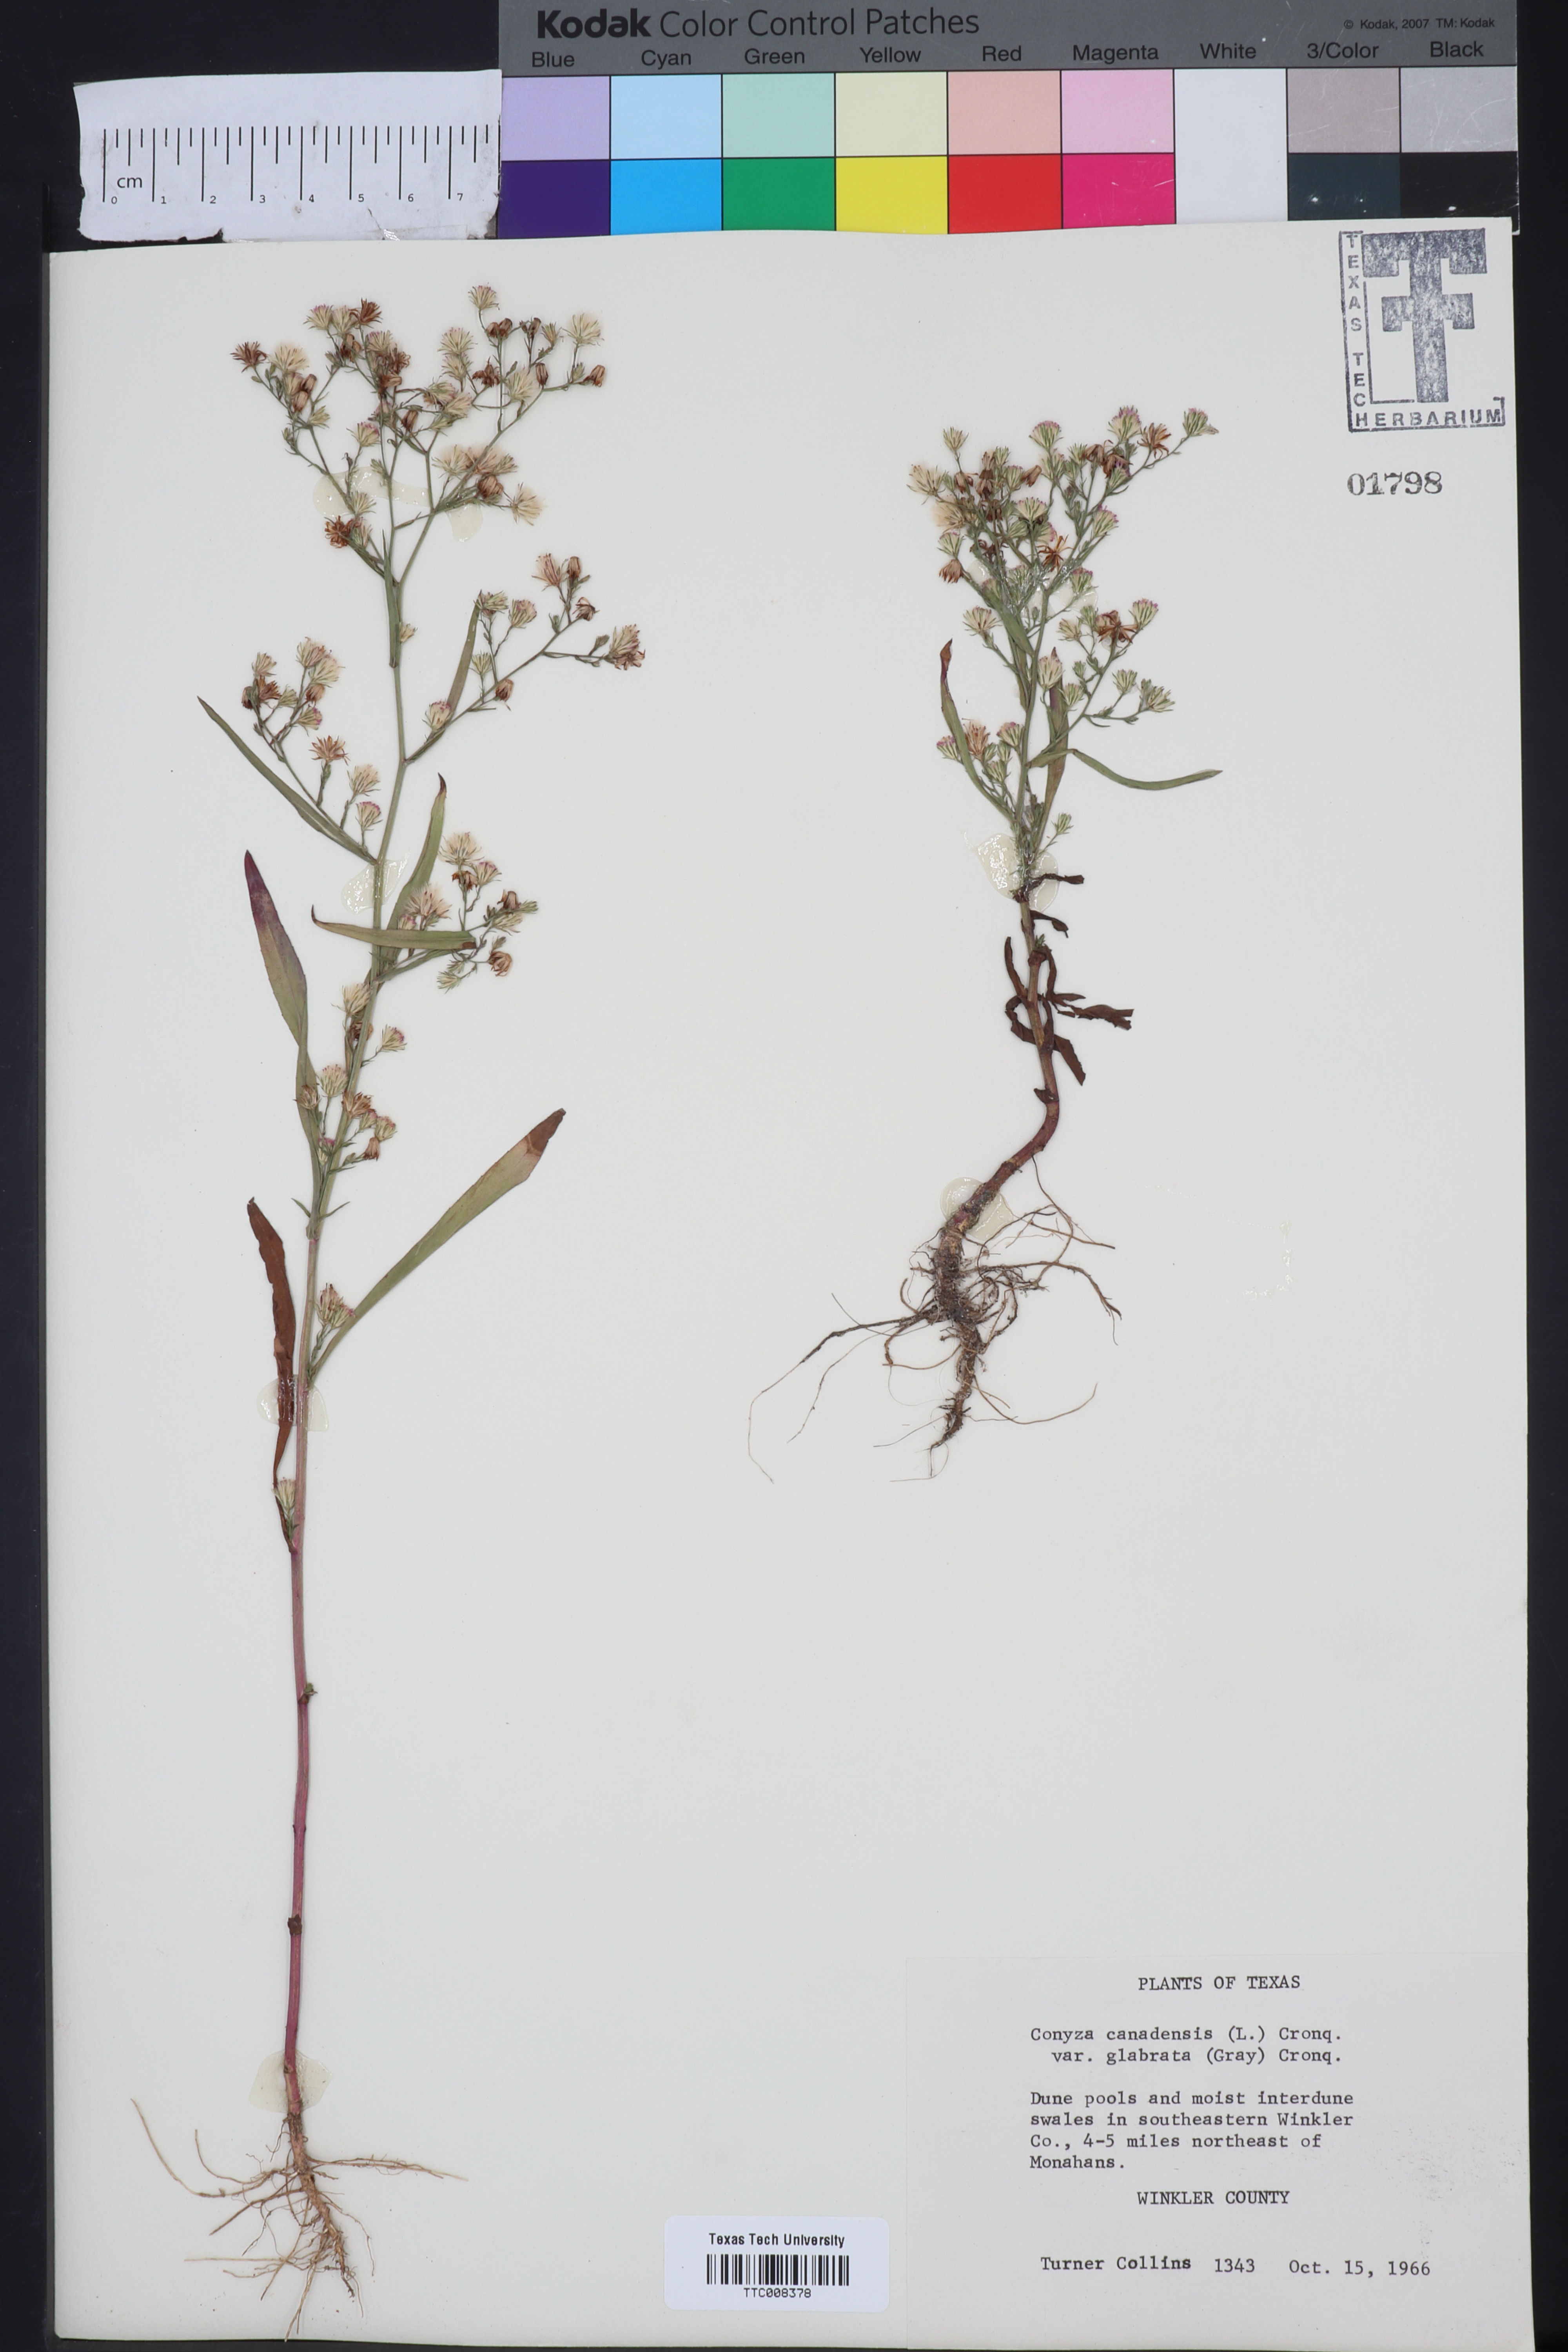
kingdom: Plantae
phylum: Tracheophyta
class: Magnoliopsida
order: Asterales
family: Asteraceae
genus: Erigeron
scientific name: Erigeron canadensis
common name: Canadian fleabane
